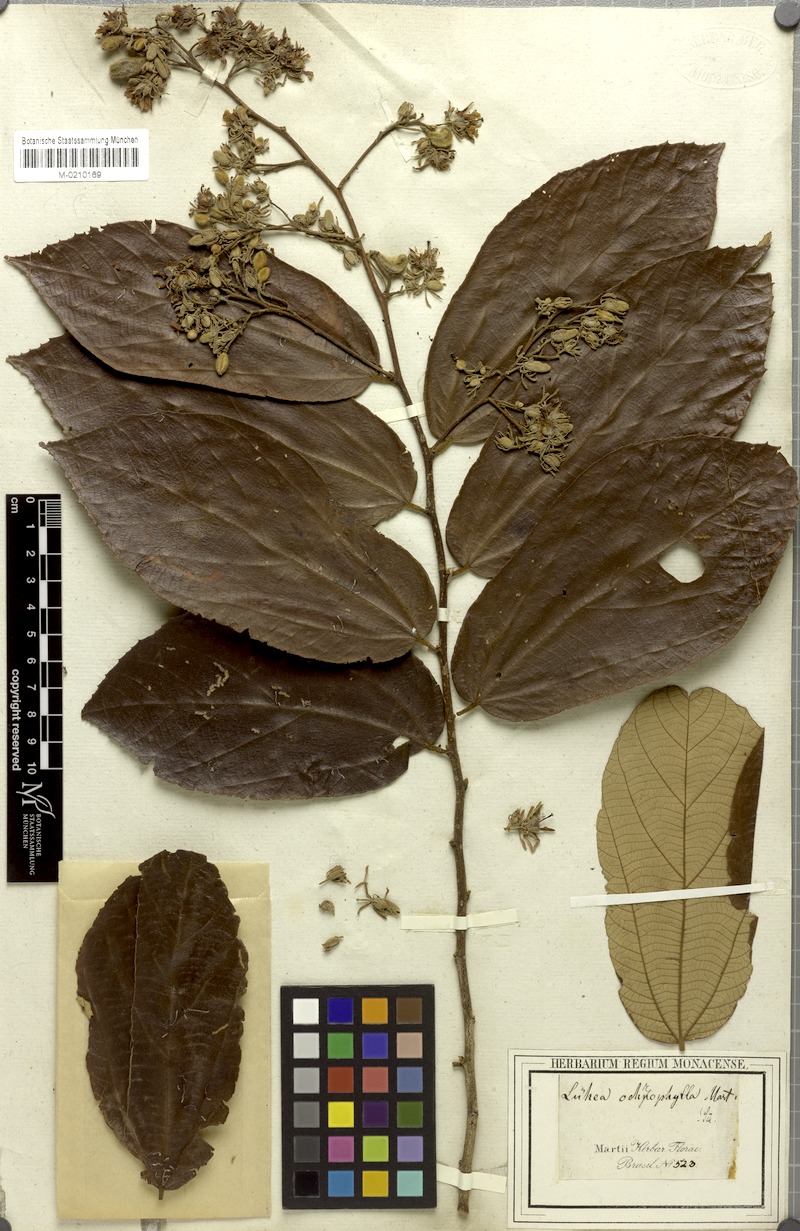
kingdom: Plantae
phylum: Tracheophyta
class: Magnoliopsida
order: Malvales
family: Malvaceae
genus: Luehea
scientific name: Luehea ochrophylla
